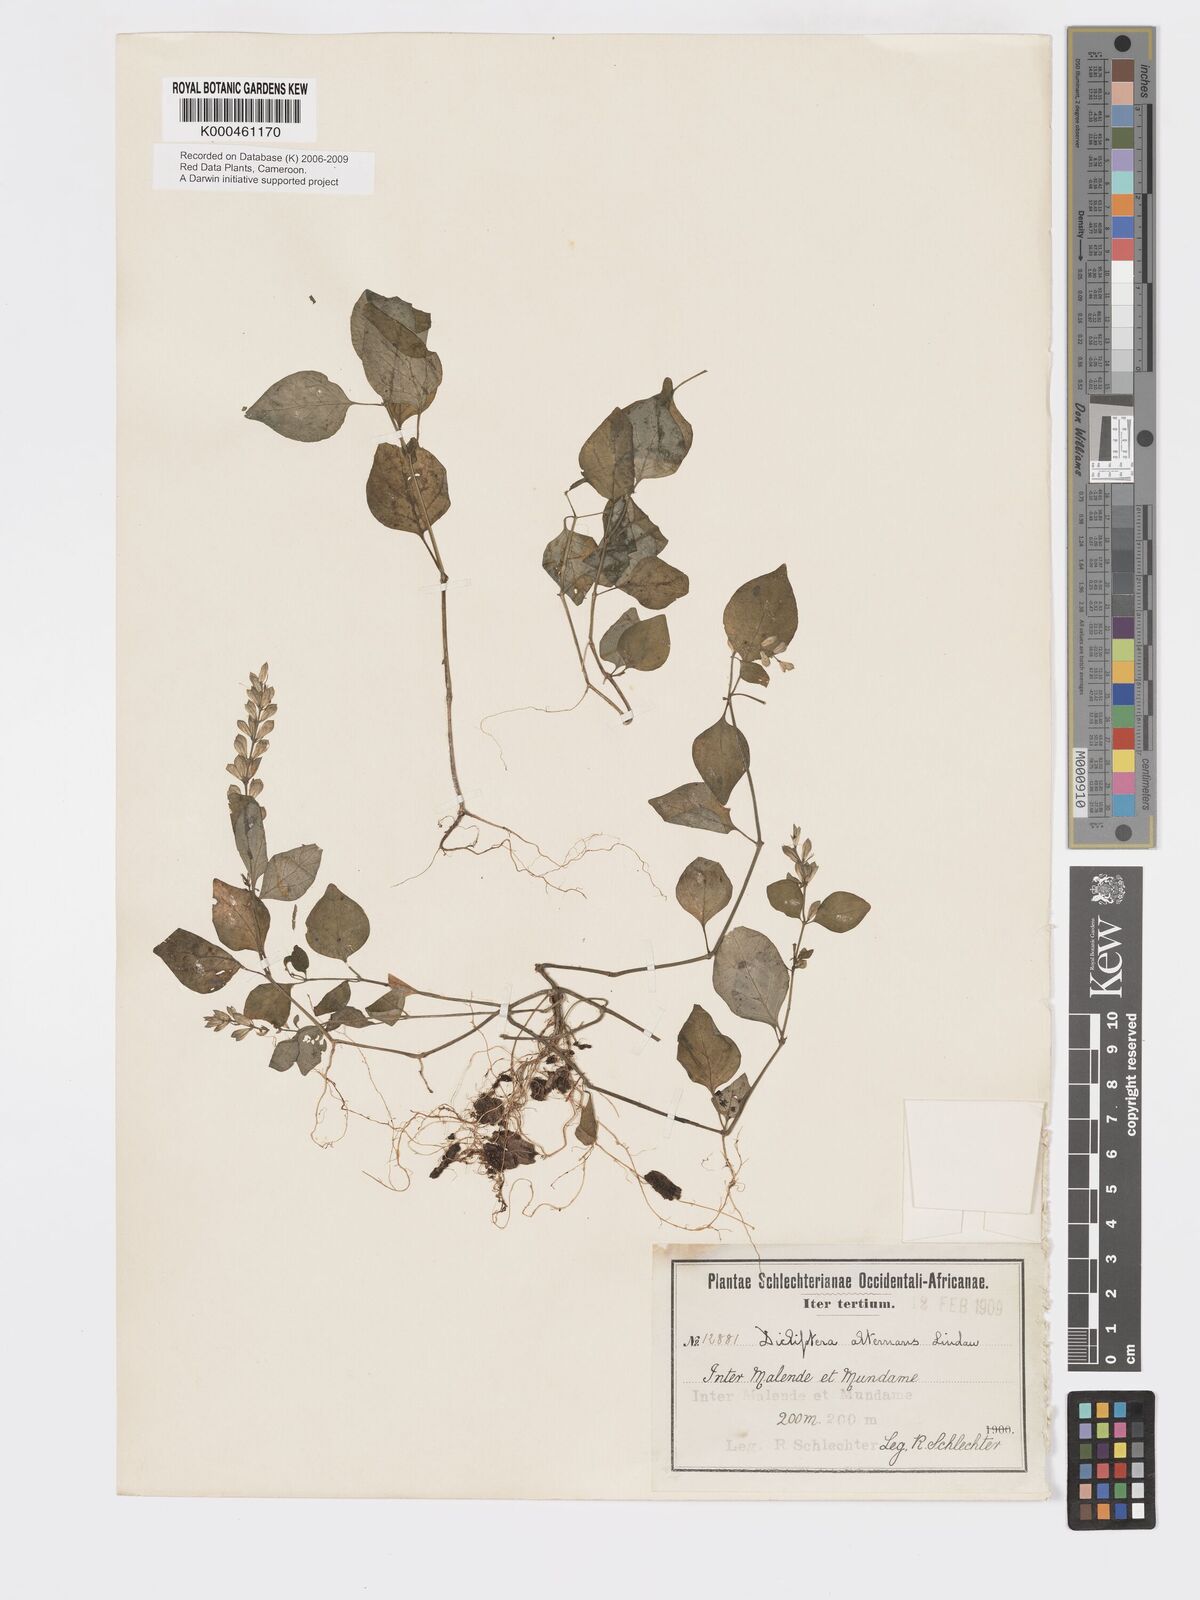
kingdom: Plantae
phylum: Tracheophyta
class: Magnoliopsida
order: Lamiales
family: Acanthaceae
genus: Dicliptera
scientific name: Dicliptera alternans
